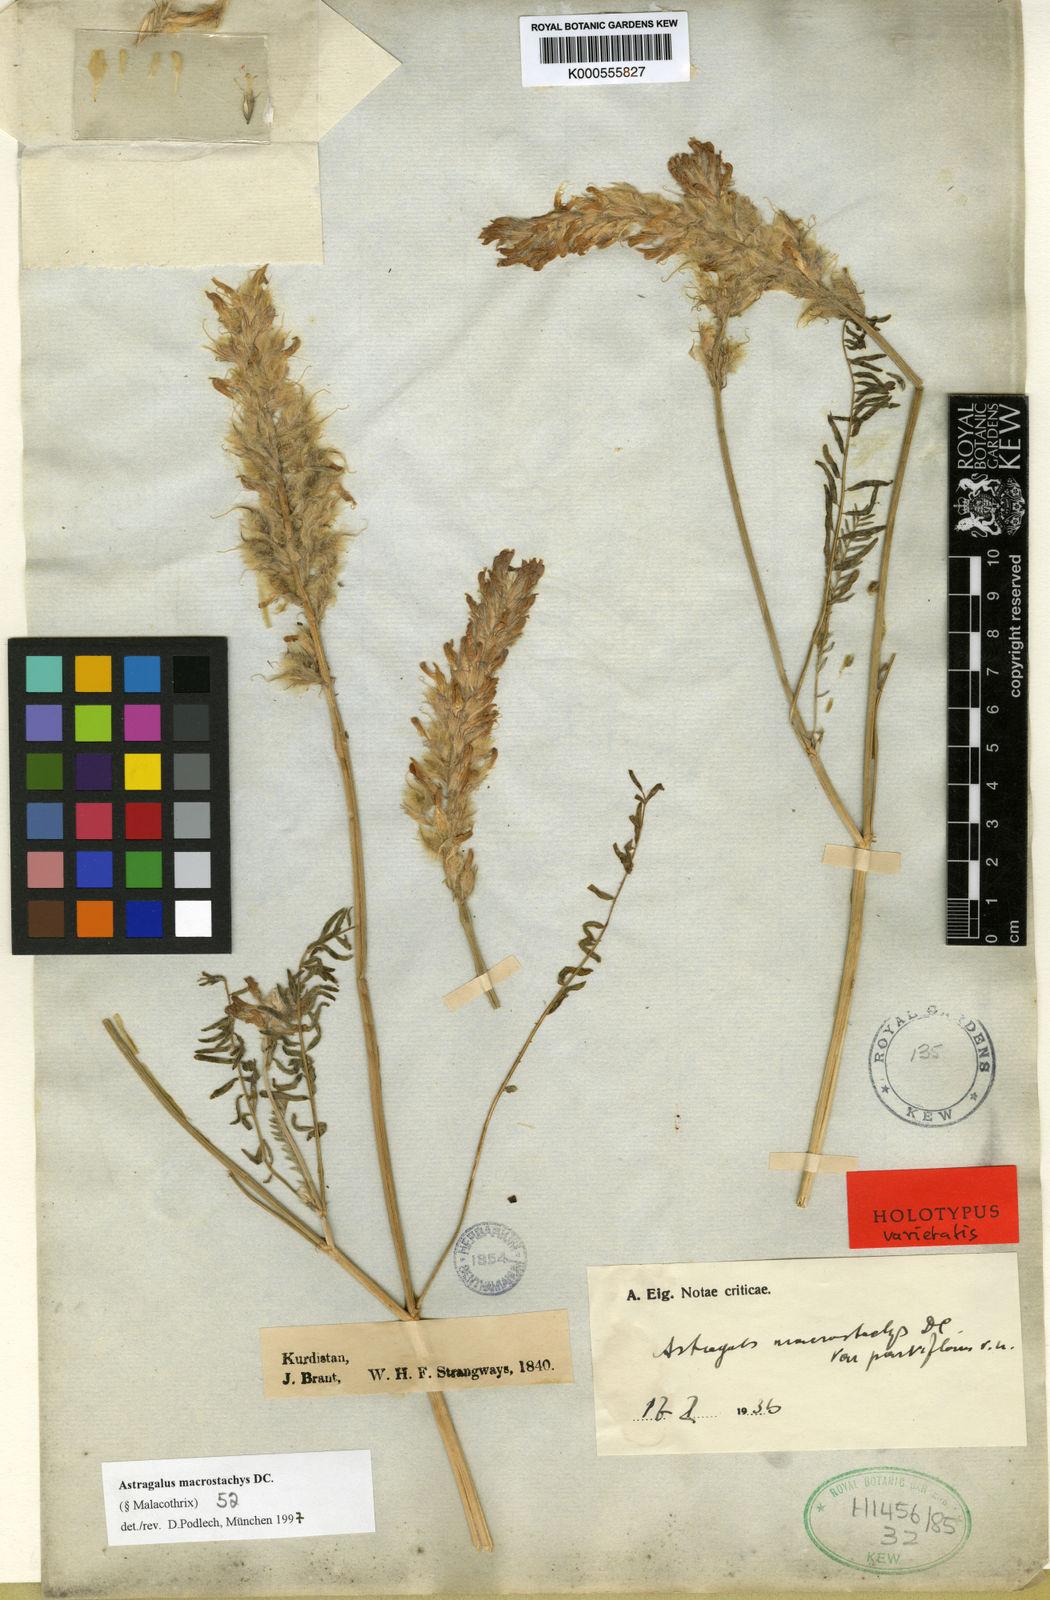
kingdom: Plantae
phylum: Tracheophyta
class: Magnoliopsida
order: Fabales
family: Fabaceae
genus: Astragalus
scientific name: Astragalus macrostachys
